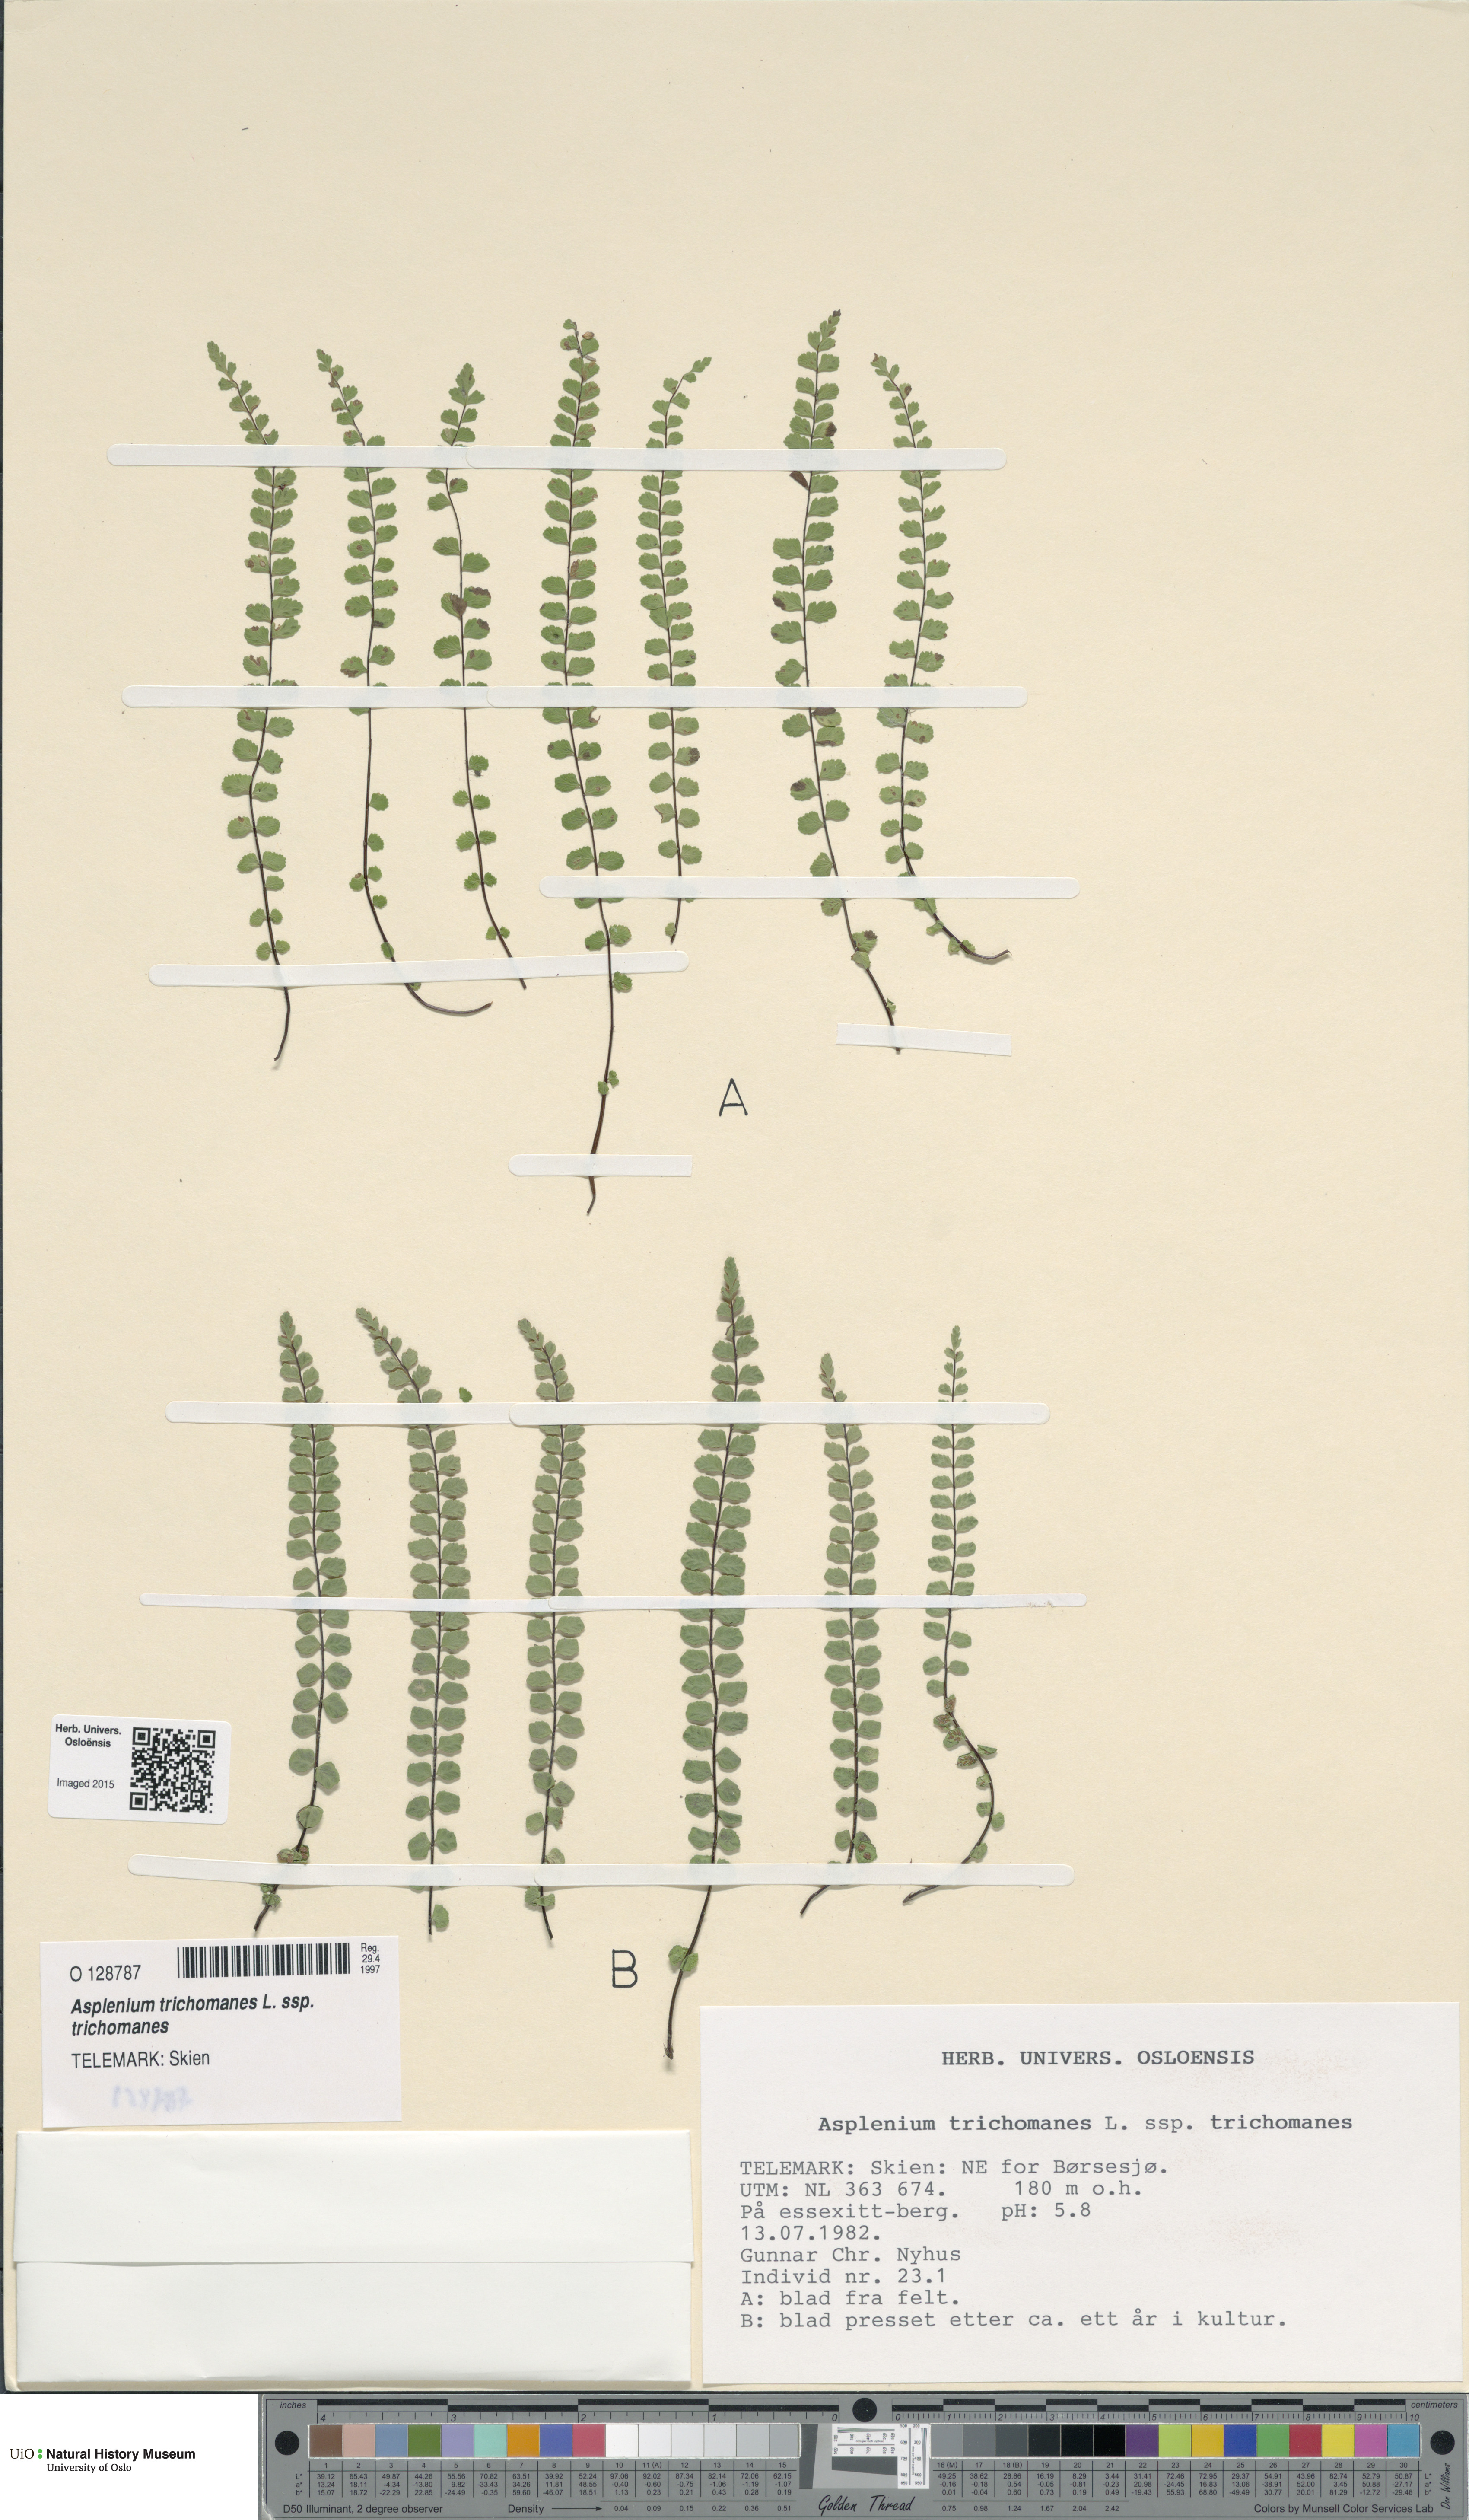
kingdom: Plantae
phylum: Tracheophyta
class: Polypodiopsida
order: Polypodiales
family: Aspleniaceae
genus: Asplenium
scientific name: Asplenium trichomanes
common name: Maidenhair spleenwort
